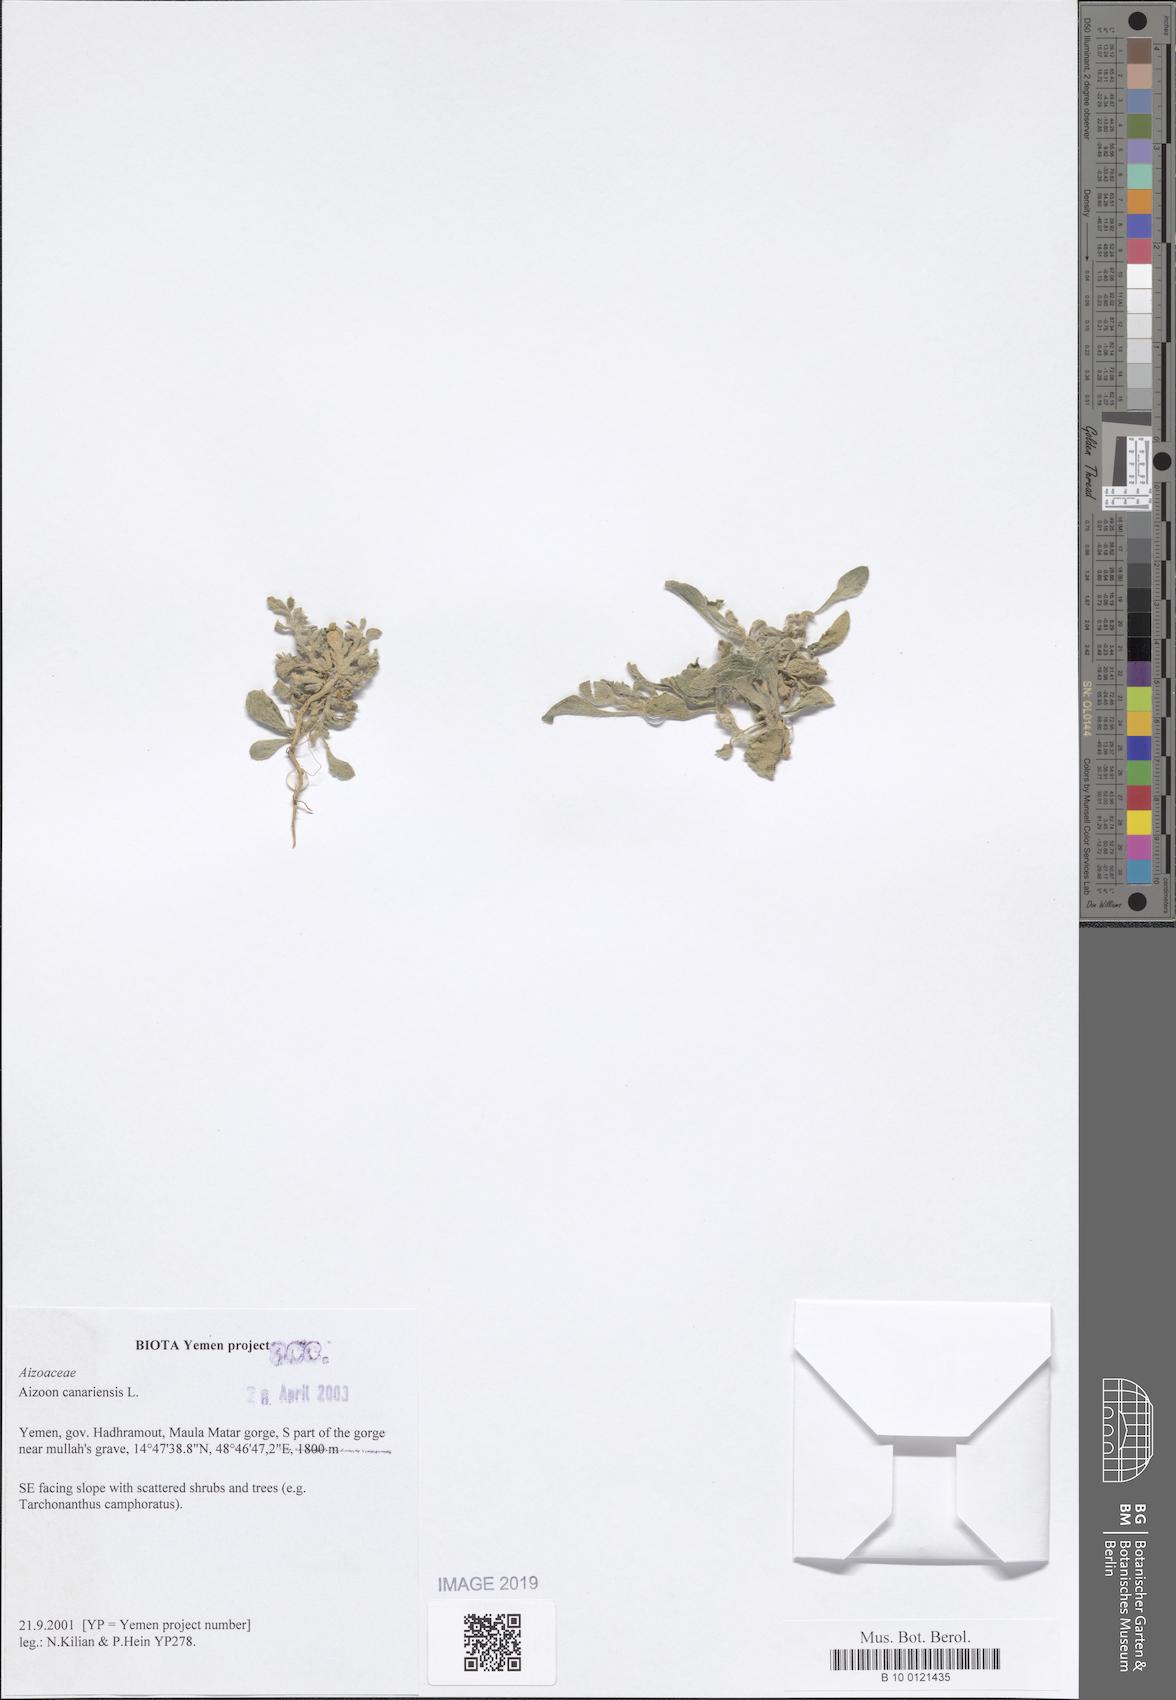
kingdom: Plantae
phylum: Tracheophyta
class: Magnoliopsida
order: Caryophyllales
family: Aizoaceae
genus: Aizoon
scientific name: Aizoon canariense
